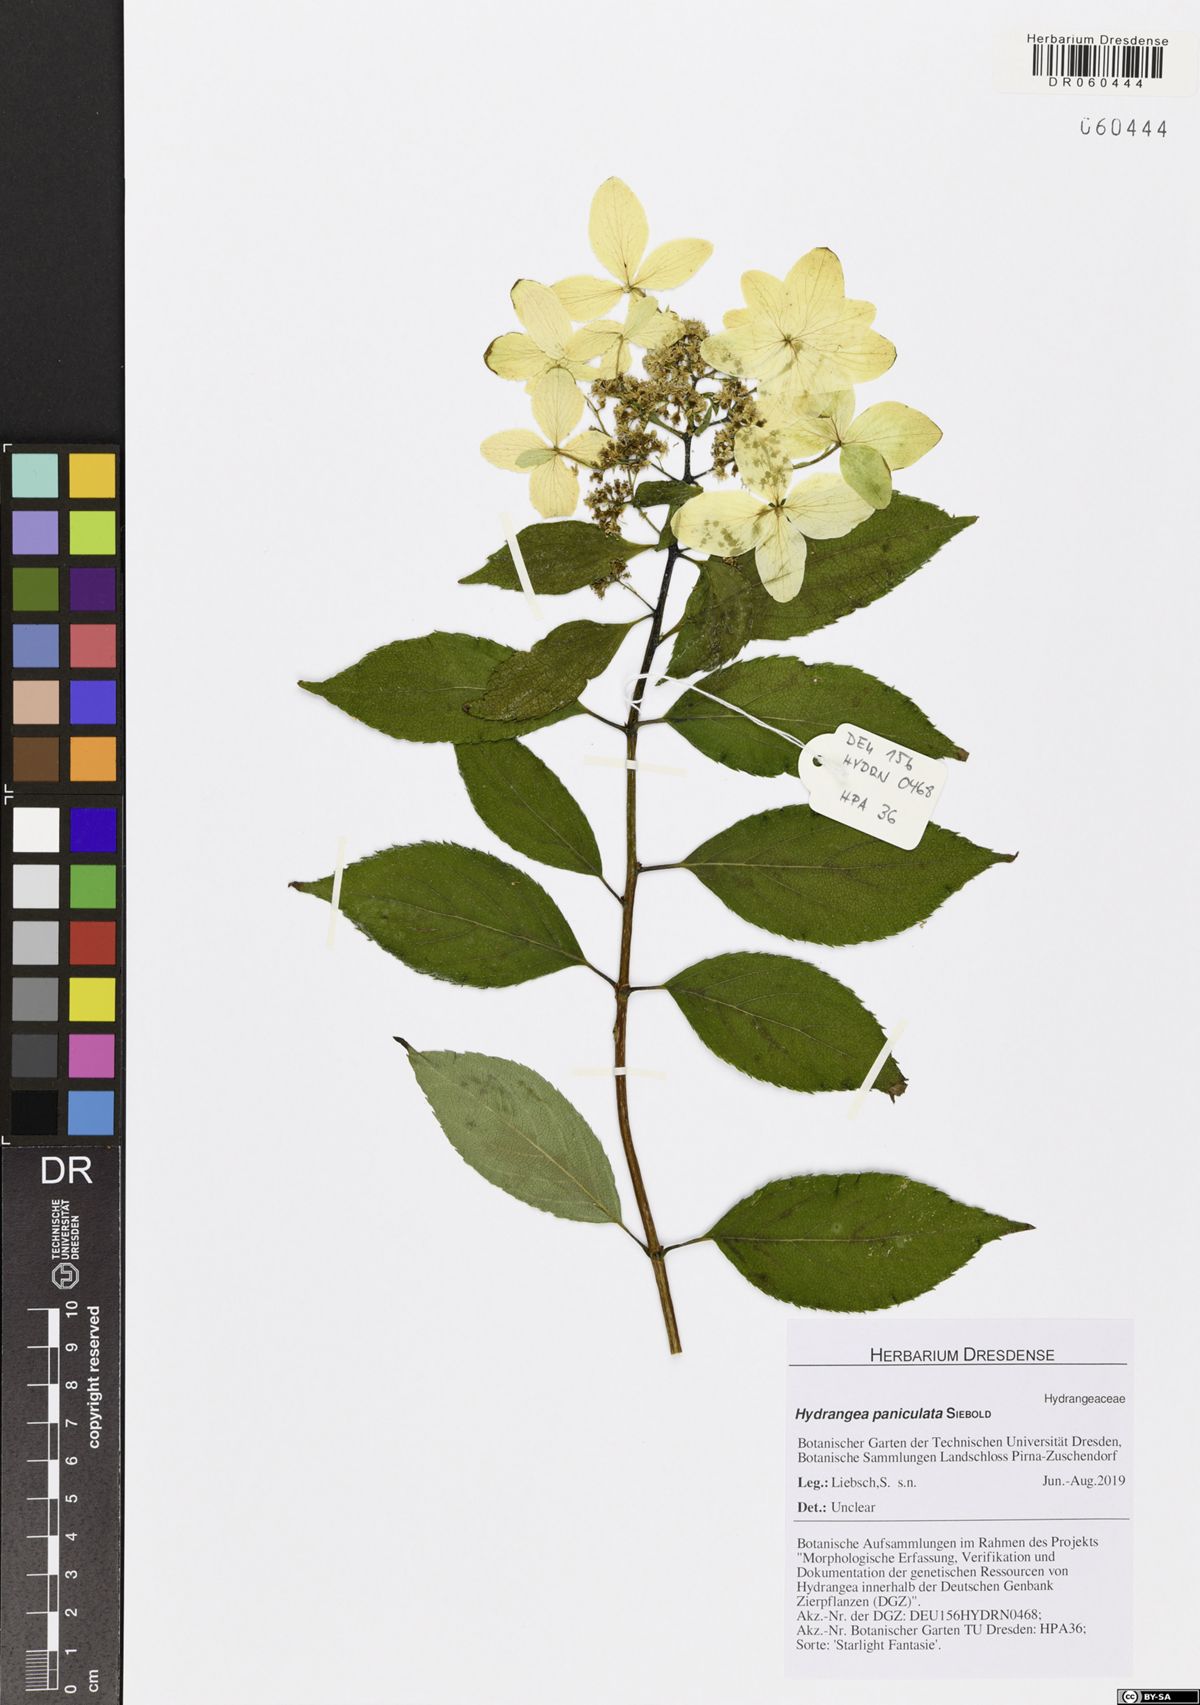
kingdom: Plantae
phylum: Tracheophyta
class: Magnoliopsida
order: Cornales
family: Hydrangeaceae
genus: Hydrangea
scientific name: Hydrangea paniculata
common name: Panicled hydrangea
